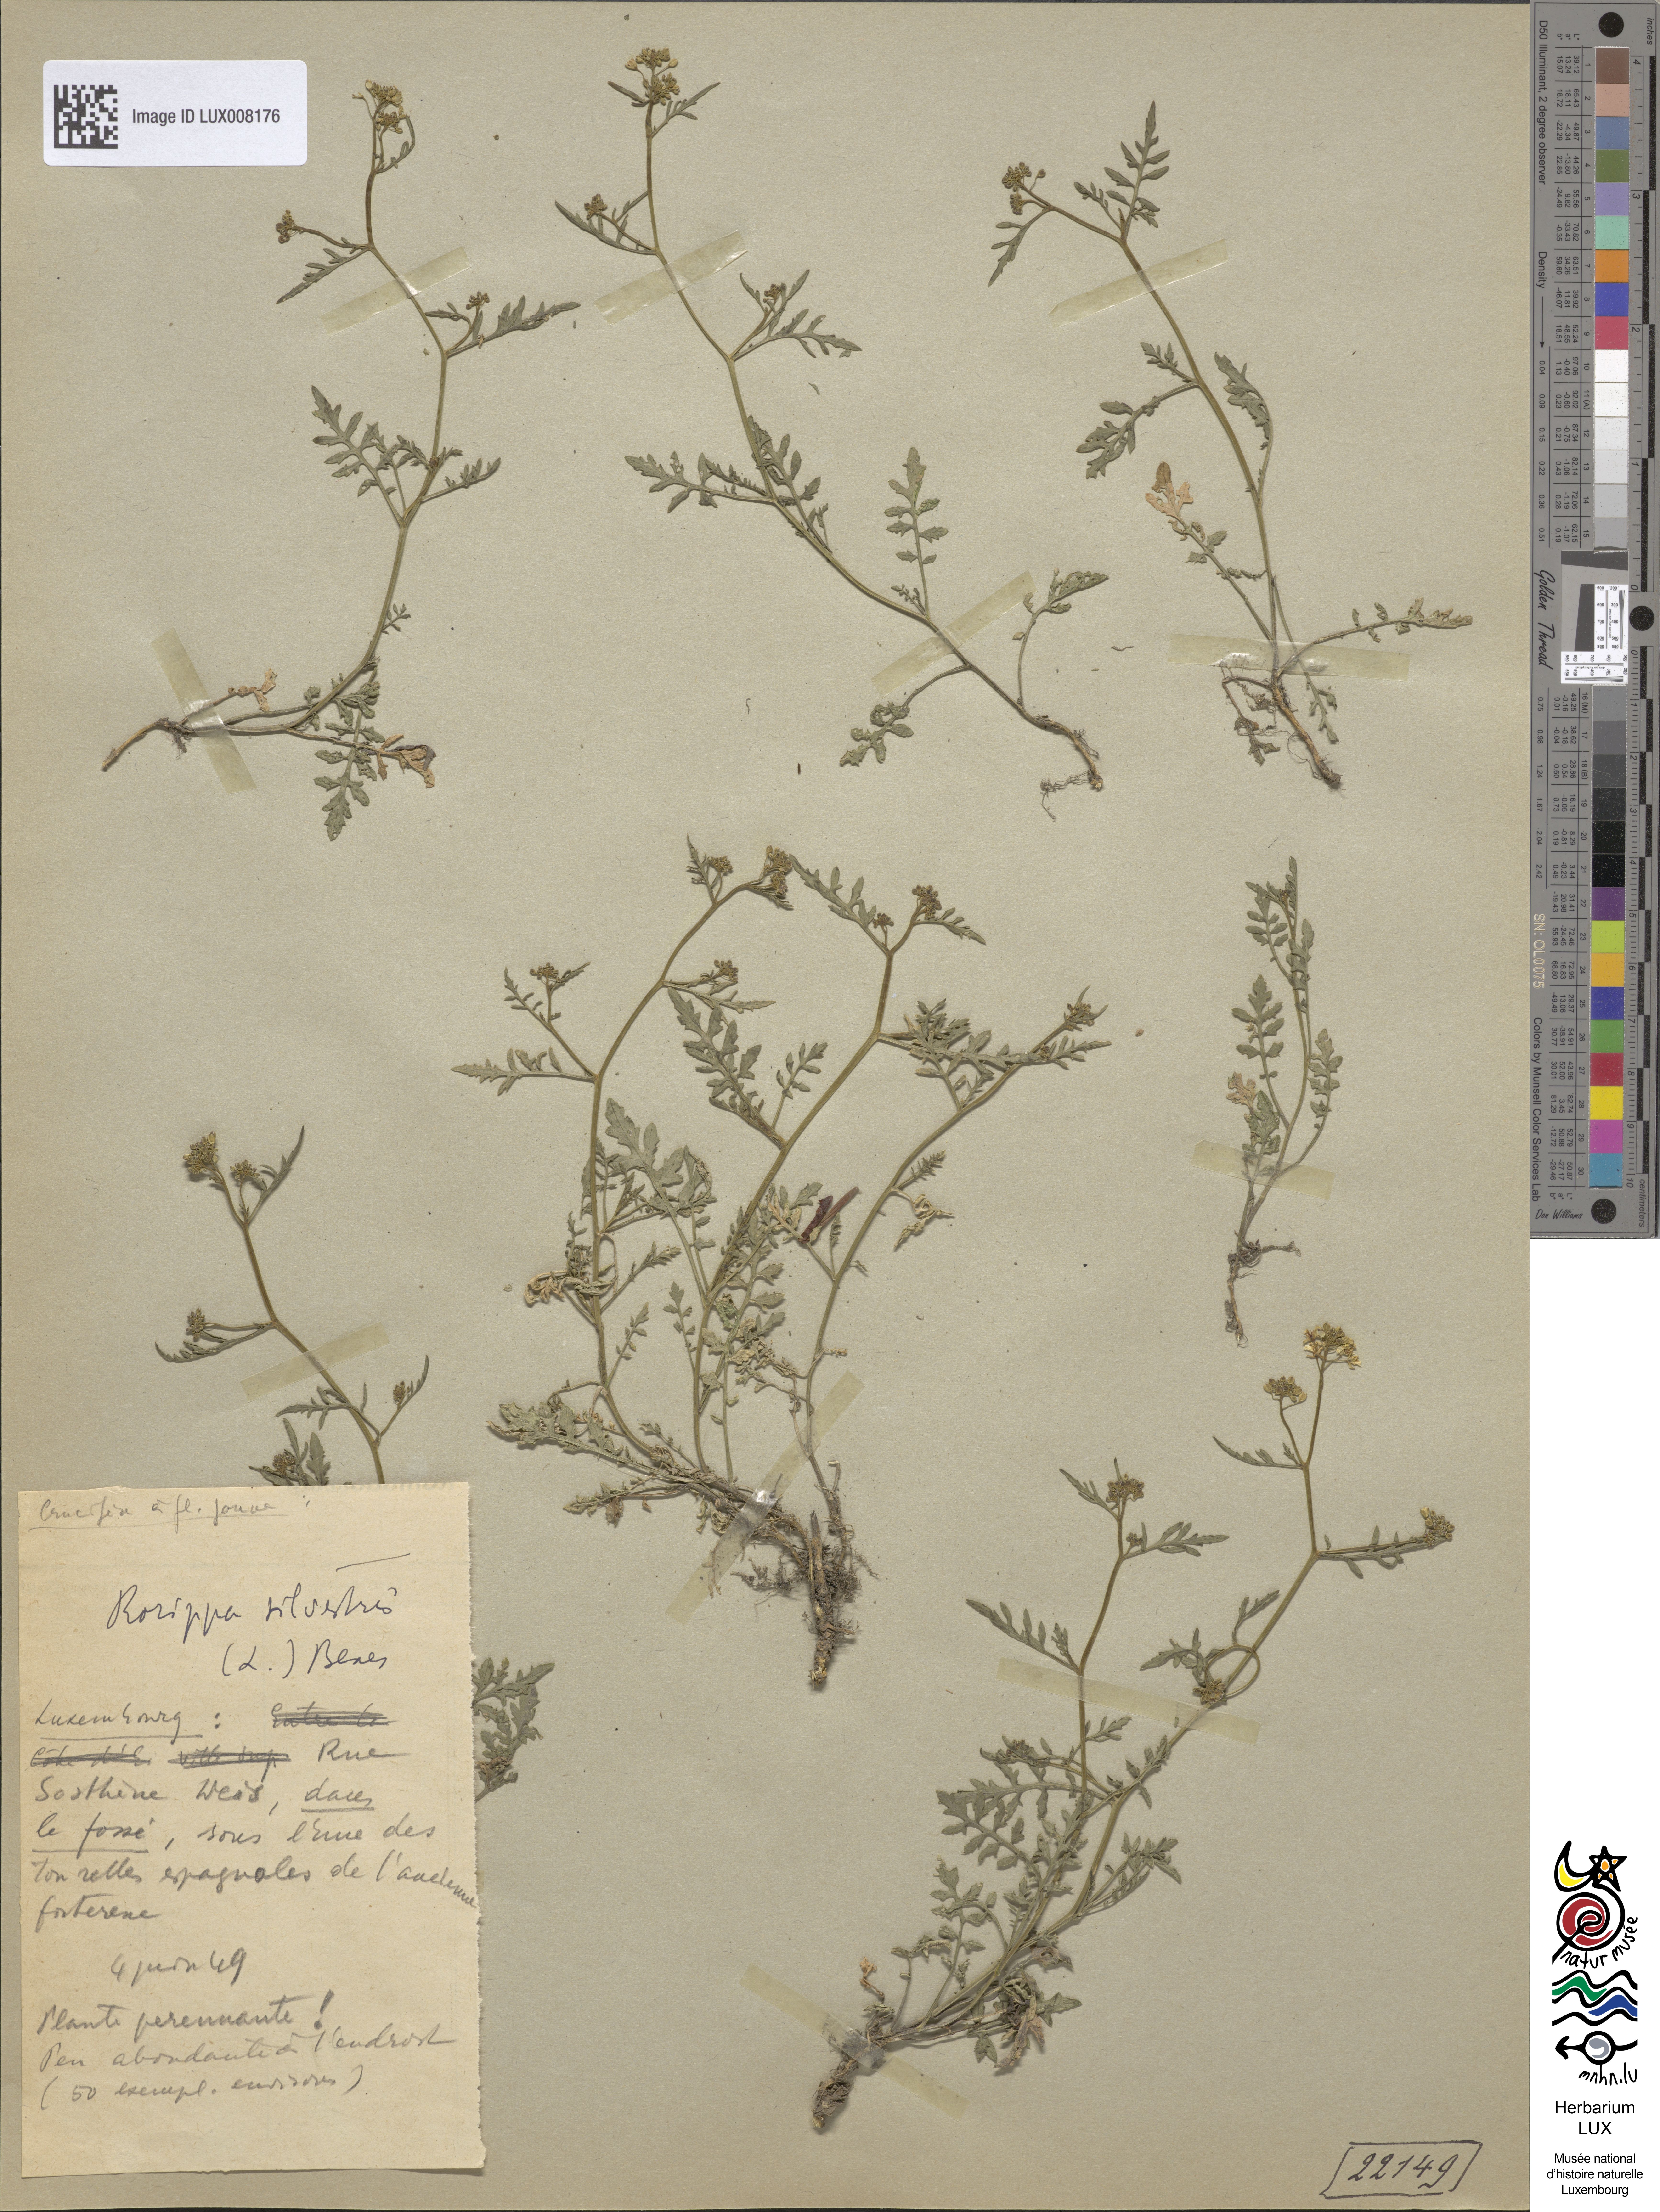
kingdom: Plantae
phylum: Tracheophyta
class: Magnoliopsida
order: Brassicales
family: Brassicaceae
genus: Rorippa
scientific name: Rorippa sylvestris
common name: Creeping yellowcress
